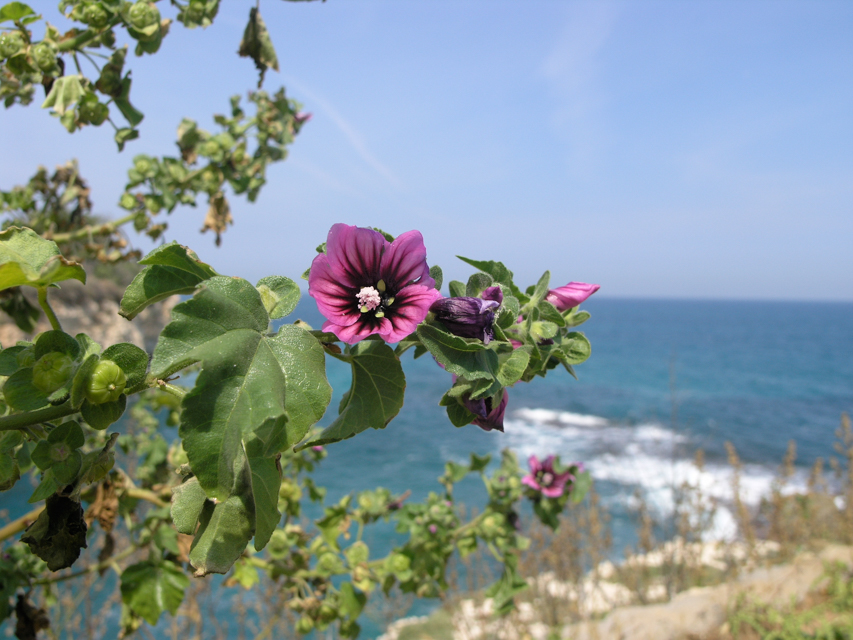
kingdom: Plantae
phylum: Tracheophyta
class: Magnoliopsida
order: Malvales
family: Malvaceae
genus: Malva
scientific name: Malva arborea
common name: Tree mallow
